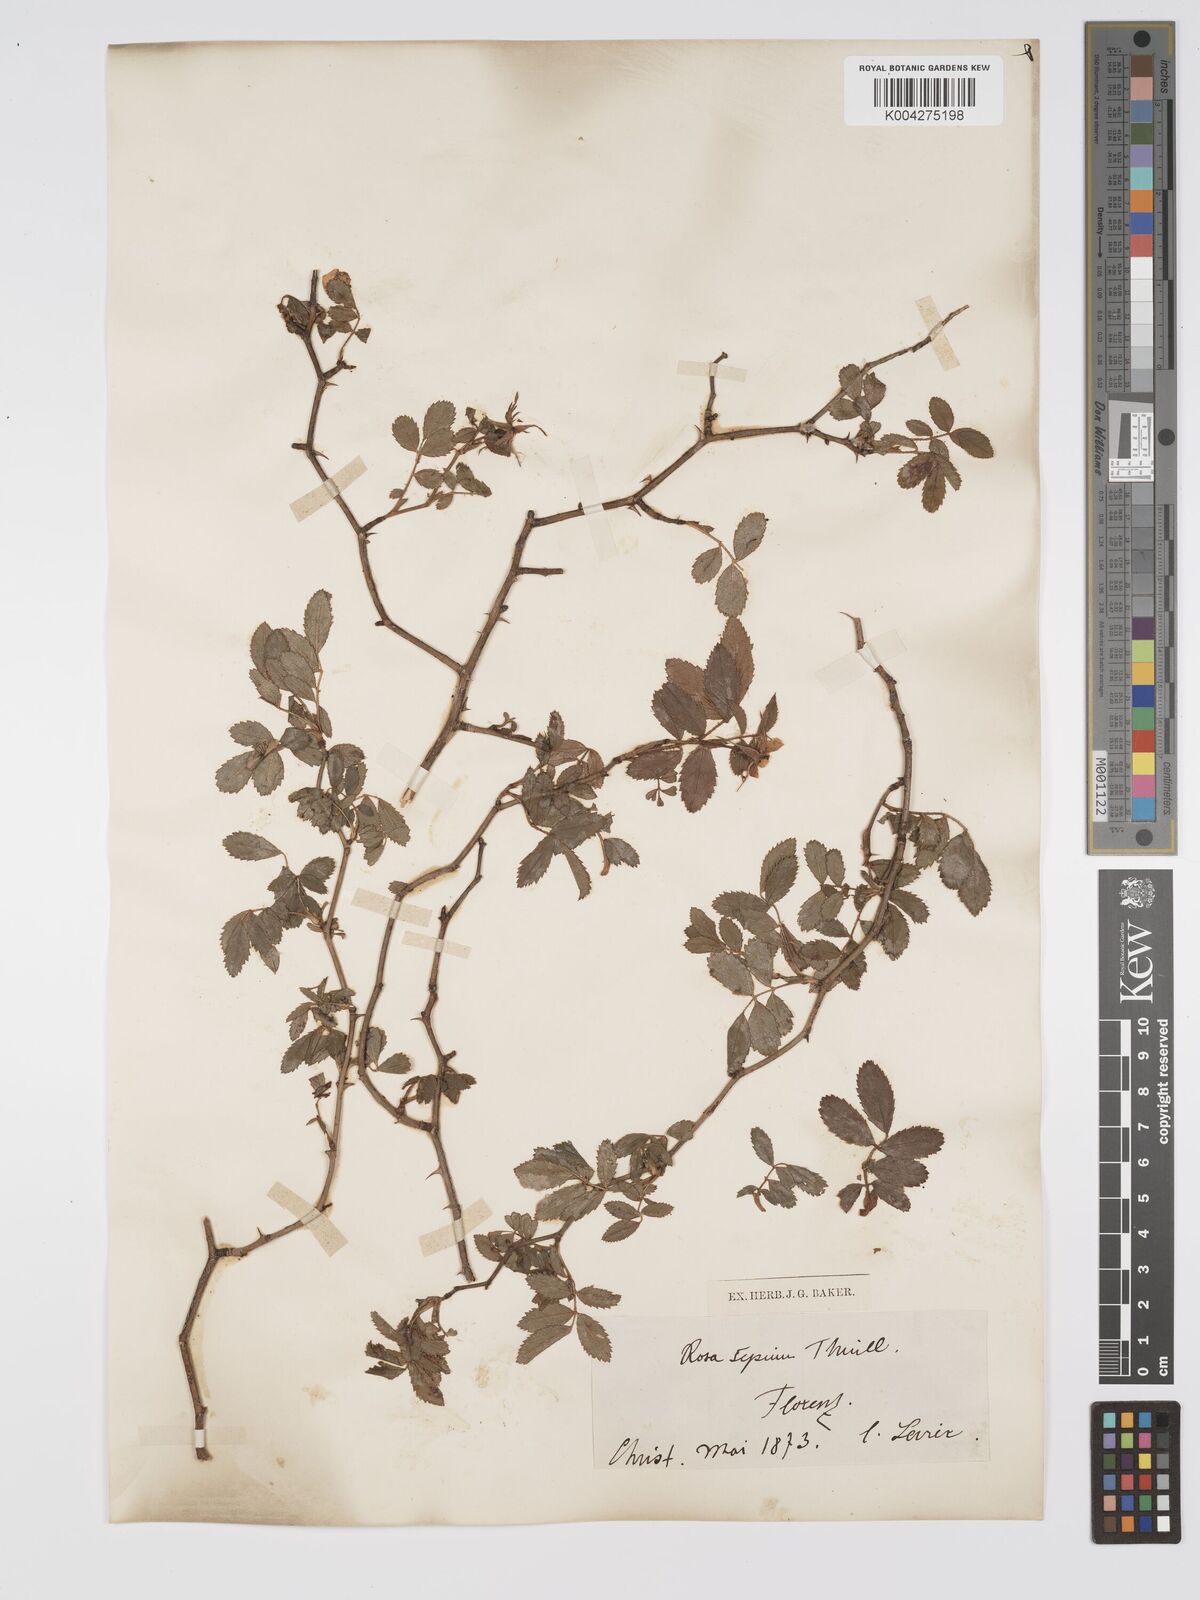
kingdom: Plantae
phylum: Tracheophyta
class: Magnoliopsida
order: Rosales
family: Rosaceae
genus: Rosa
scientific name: Rosa
